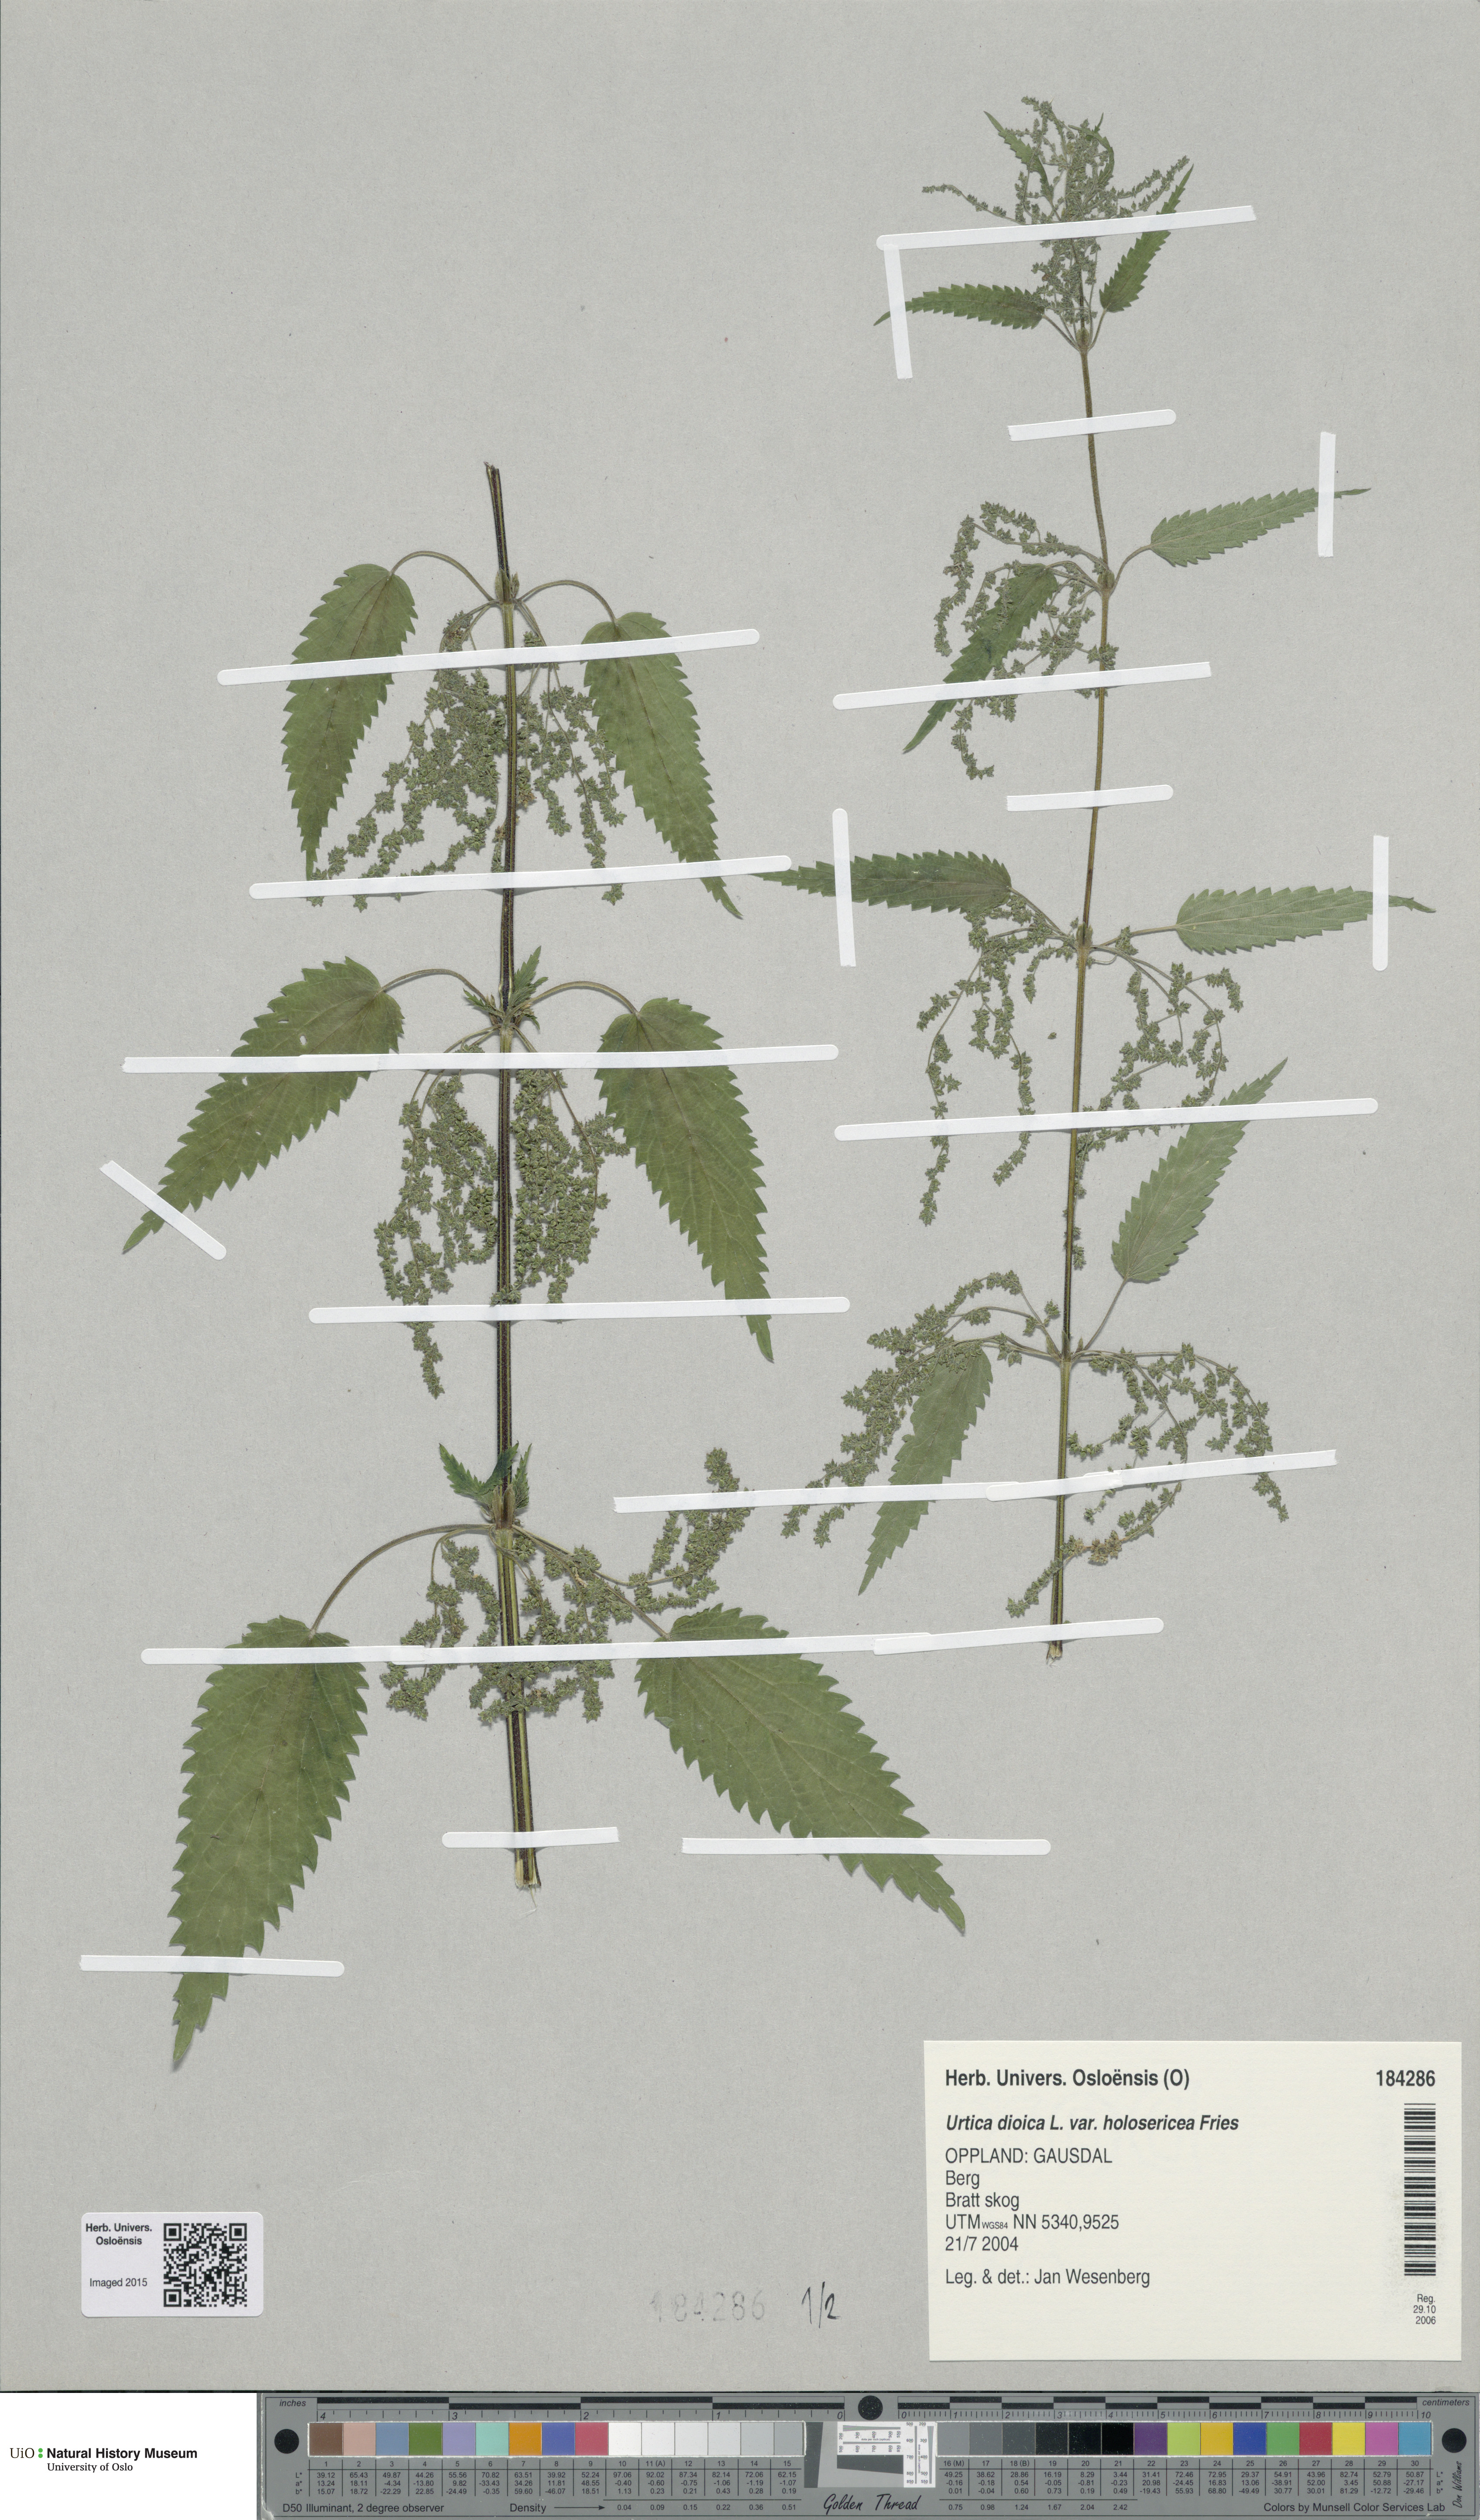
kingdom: Plantae
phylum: Tracheophyta
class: Magnoliopsida
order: Rosales
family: Urticaceae
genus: Urtica
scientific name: Urtica dioica
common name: Common nettle
